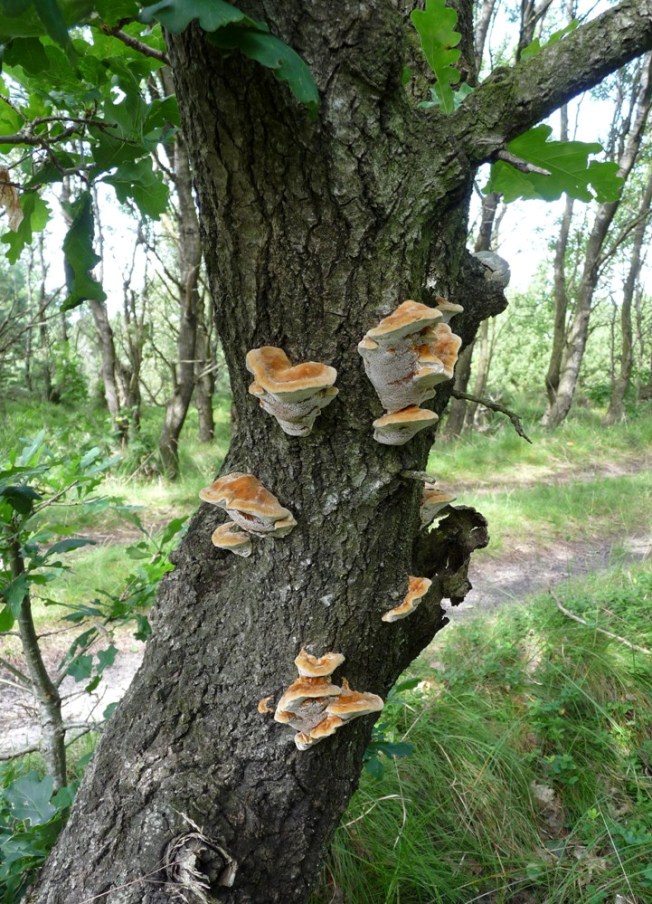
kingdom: Fungi
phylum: Basidiomycota
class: Agaricomycetes
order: Hymenochaetales
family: Hymenochaetaceae
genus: Inocutis
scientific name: Inocutis rheades
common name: ræve-spejlporesvamp
